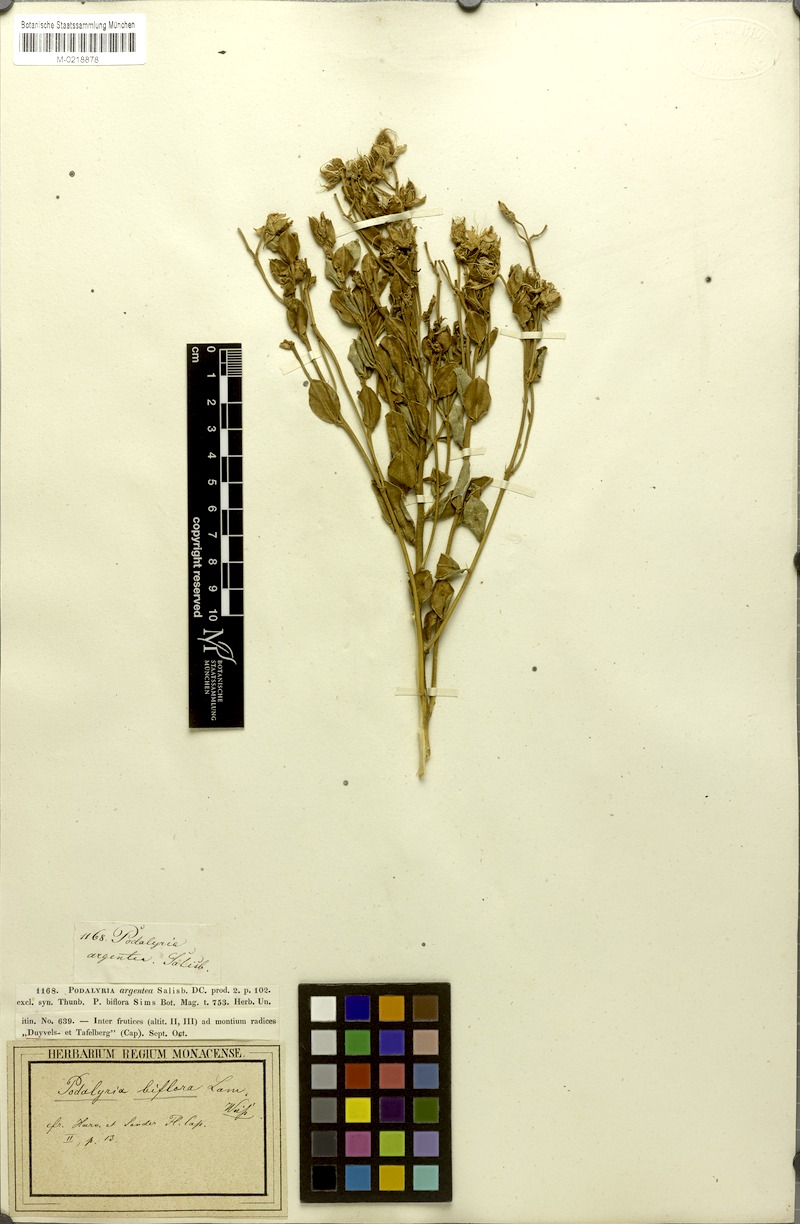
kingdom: Plantae
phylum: Tracheophyta
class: Magnoliopsida
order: Fabales
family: Fabaceae
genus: Podalyria
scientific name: Podalyria biflora
